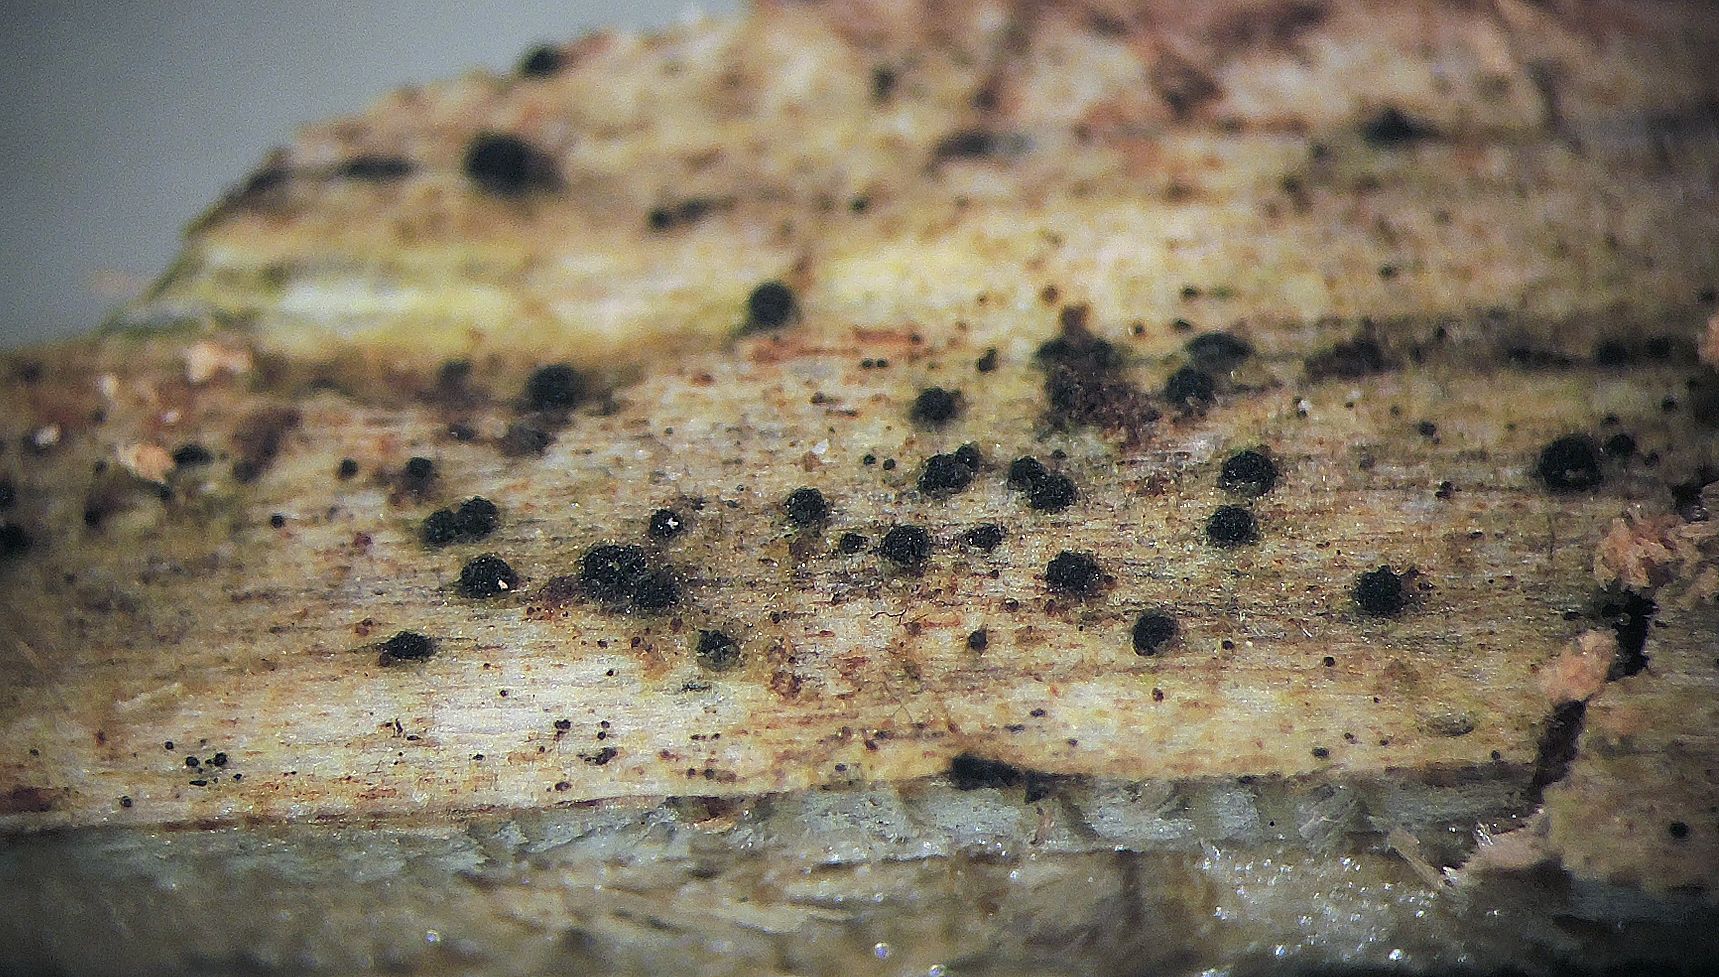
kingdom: Fungi
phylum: Ascomycota
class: Sordariomycetes
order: Sordariales
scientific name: Sordariales
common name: kernesvampordenen
